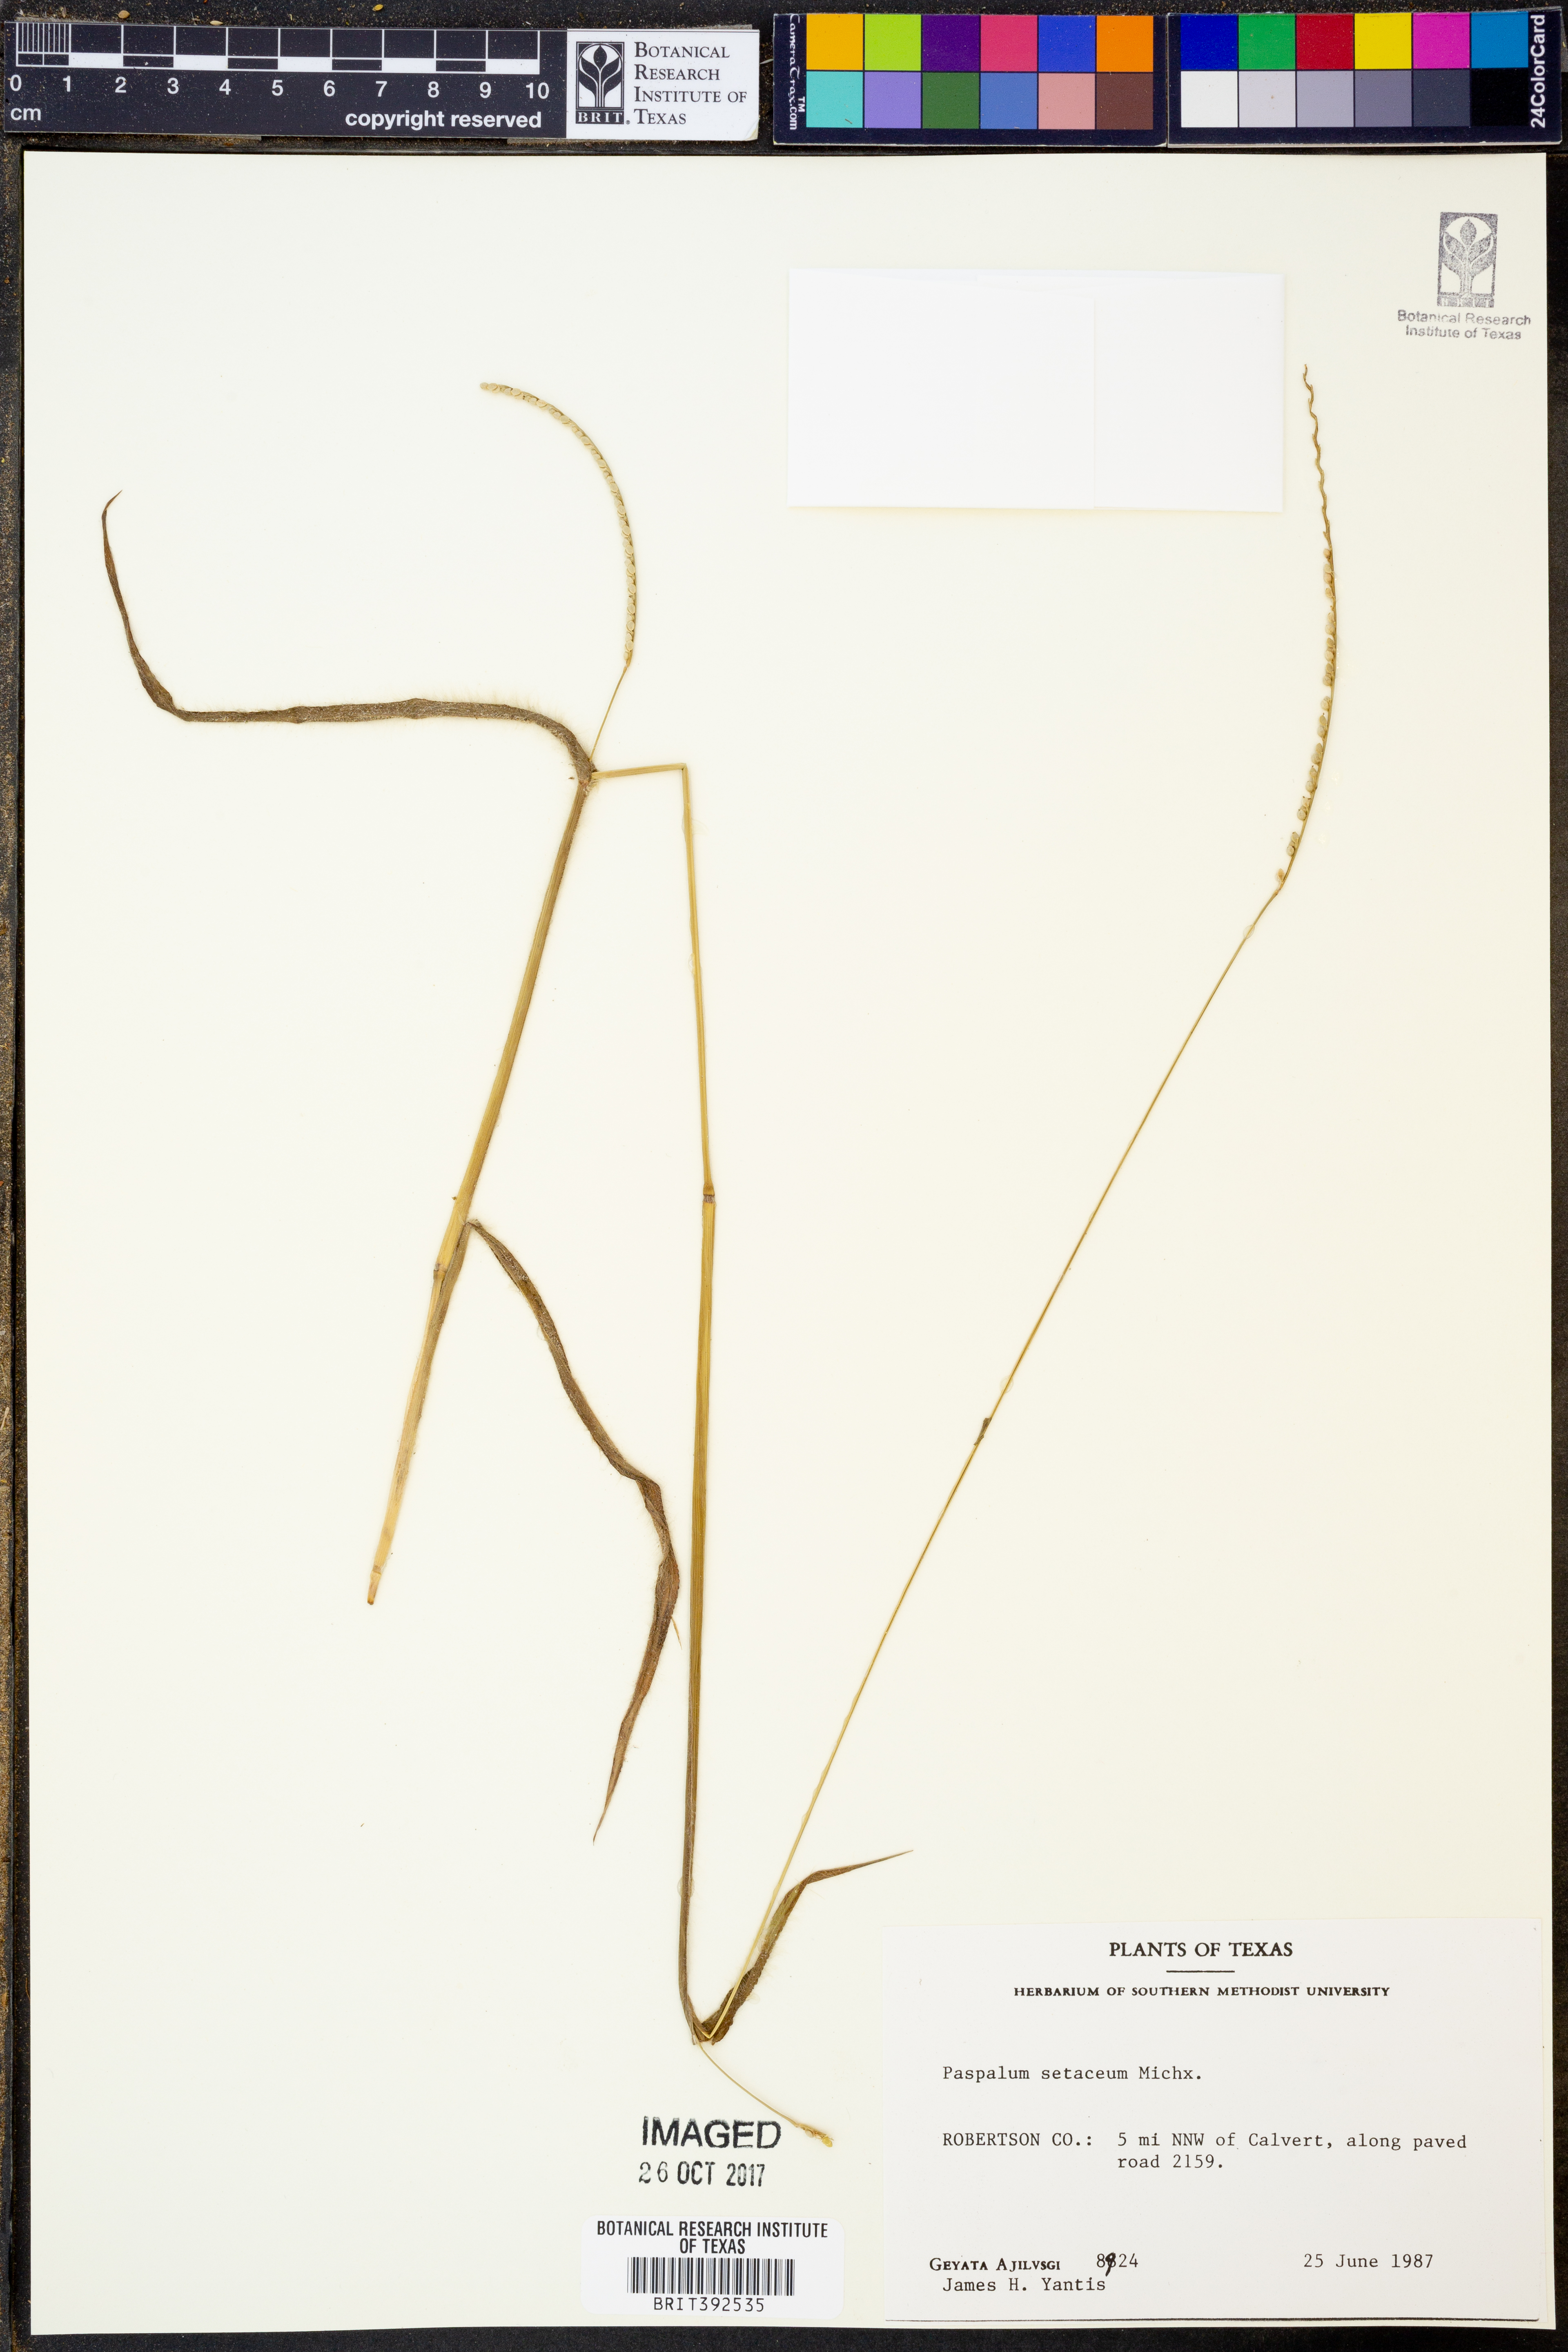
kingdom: Plantae
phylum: Tracheophyta
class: Liliopsida
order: Poales
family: Poaceae
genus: Paspalum
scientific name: Paspalum setaceum
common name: Slender paspalum
